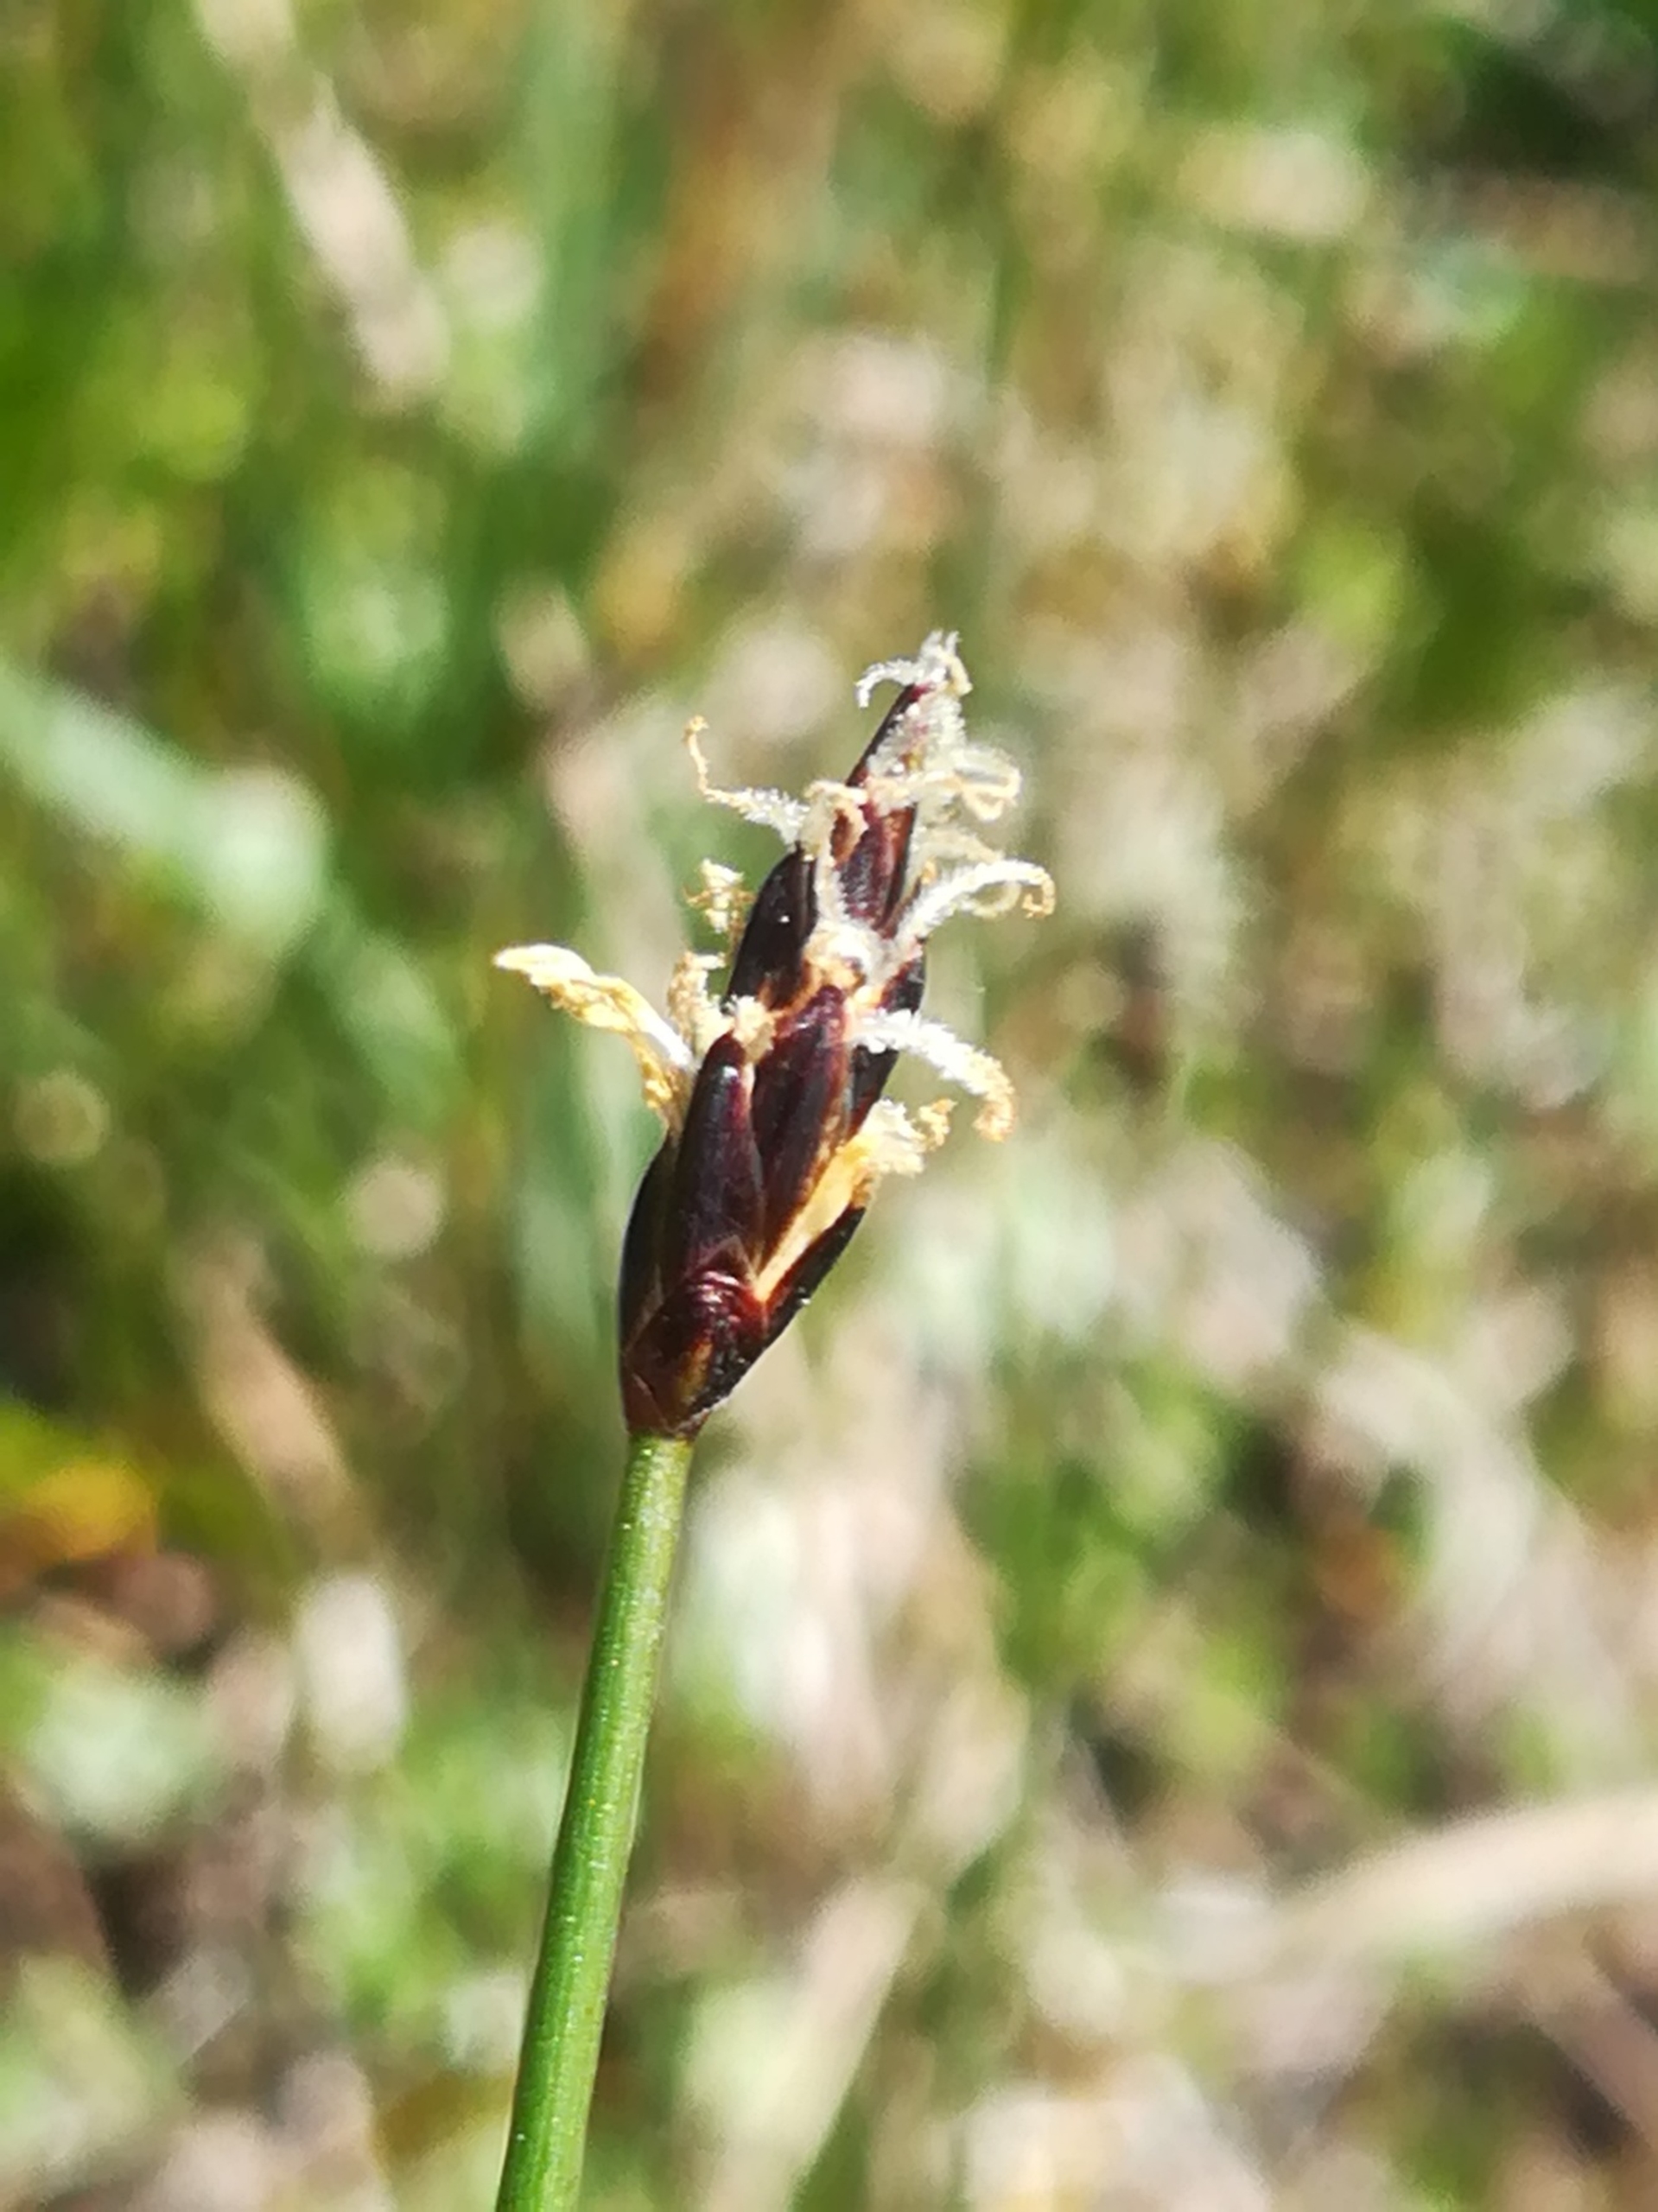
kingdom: Plantae
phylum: Tracheophyta
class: Liliopsida
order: Poales
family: Cyperaceae
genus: Carex
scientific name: Carex dioica
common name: Tvebo star
